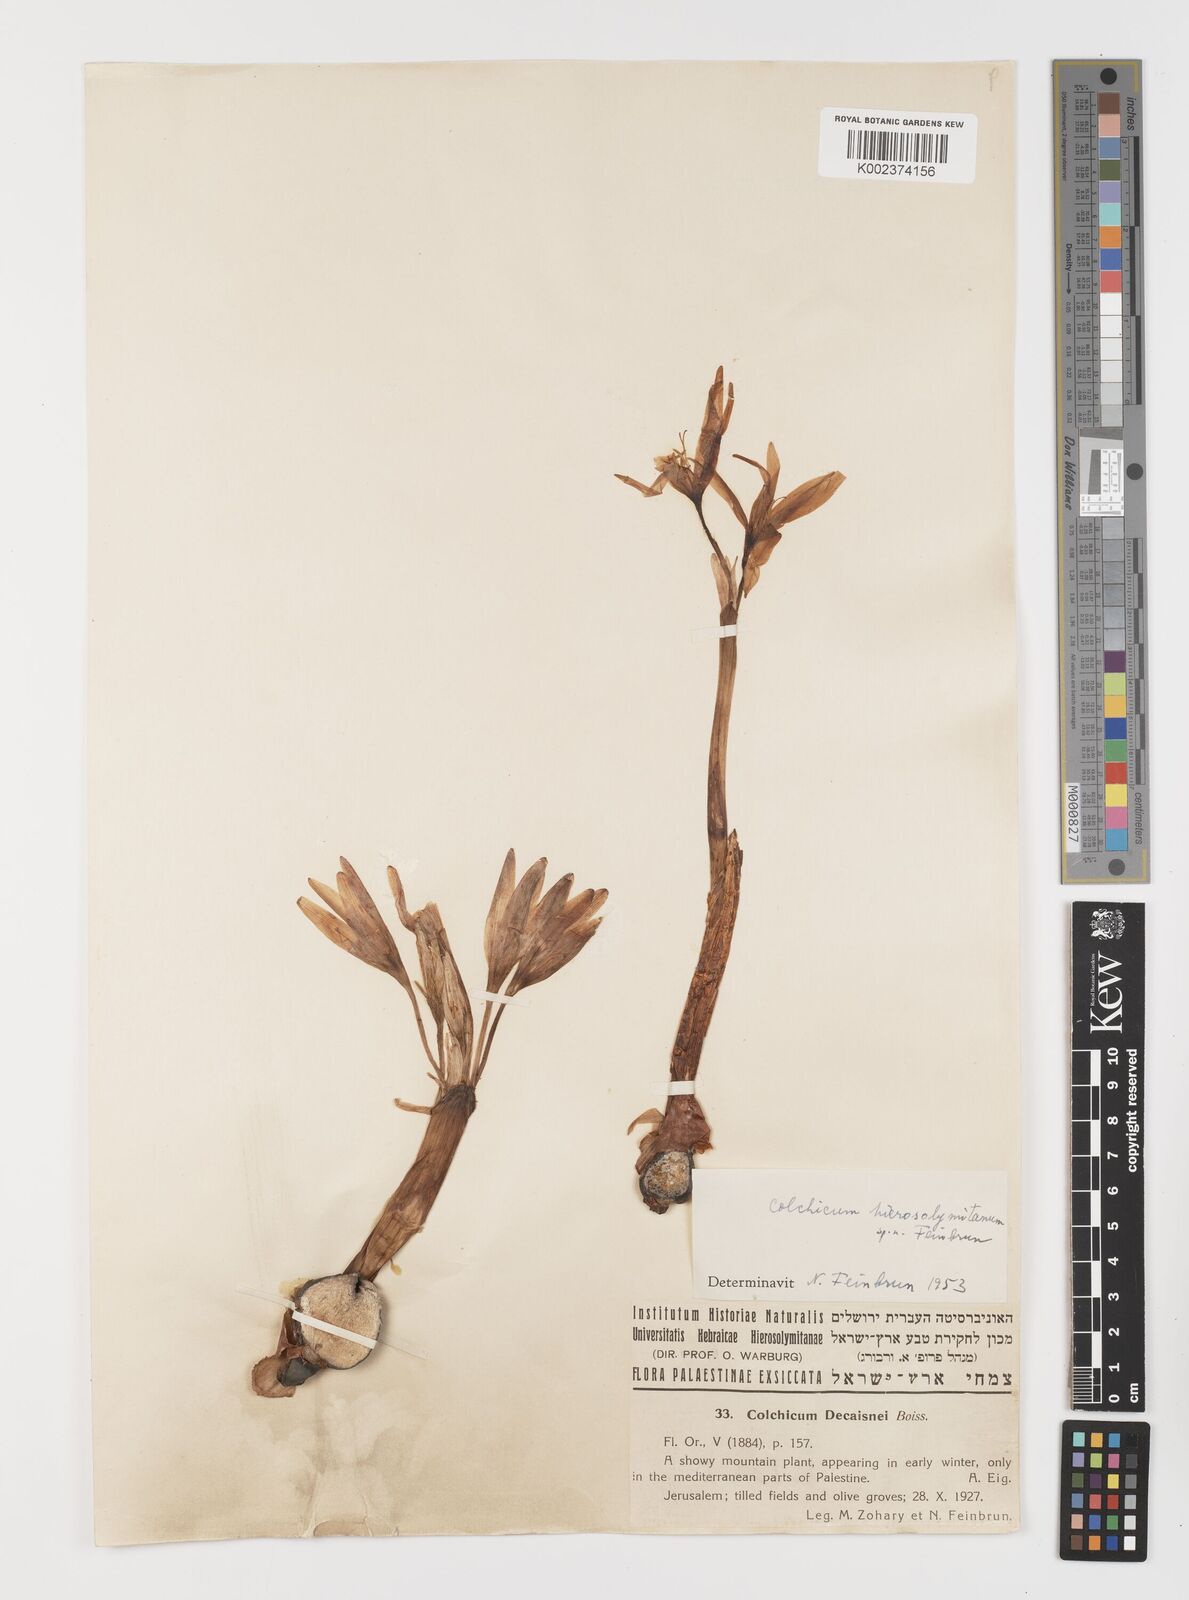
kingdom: Plantae
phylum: Tracheophyta
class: Liliopsida
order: Liliales
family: Colchicaceae
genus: Colchicum
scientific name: Colchicum hierosolymitanum
